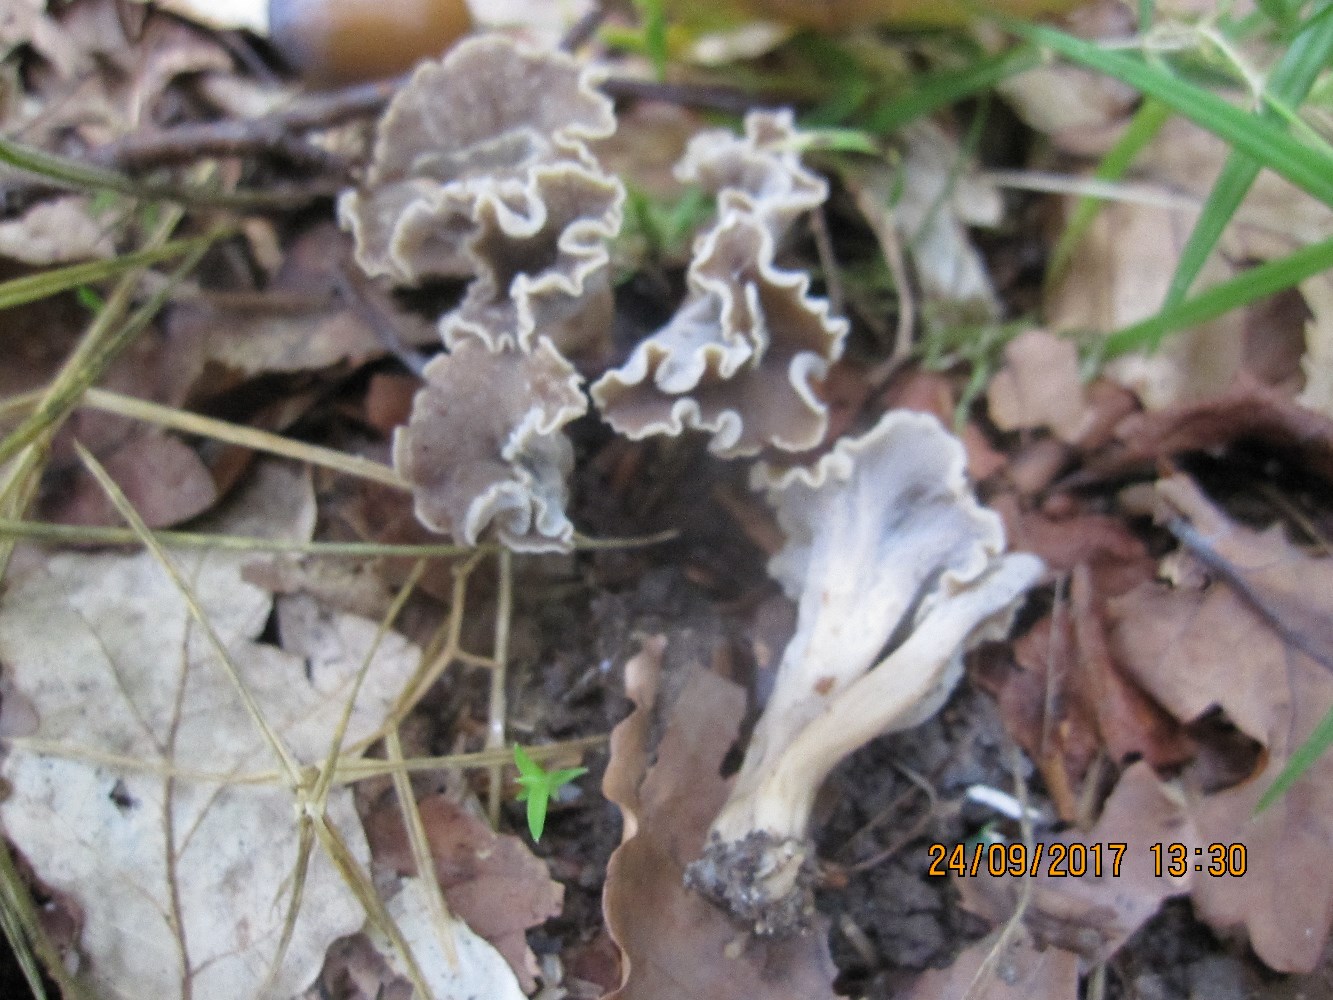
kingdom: Fungi
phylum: Basidiomycota
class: Agaricomycetes
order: Cantharellales
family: Hydnaceae
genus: Craterellus
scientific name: Craterellus undulatus
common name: liden kantarel
